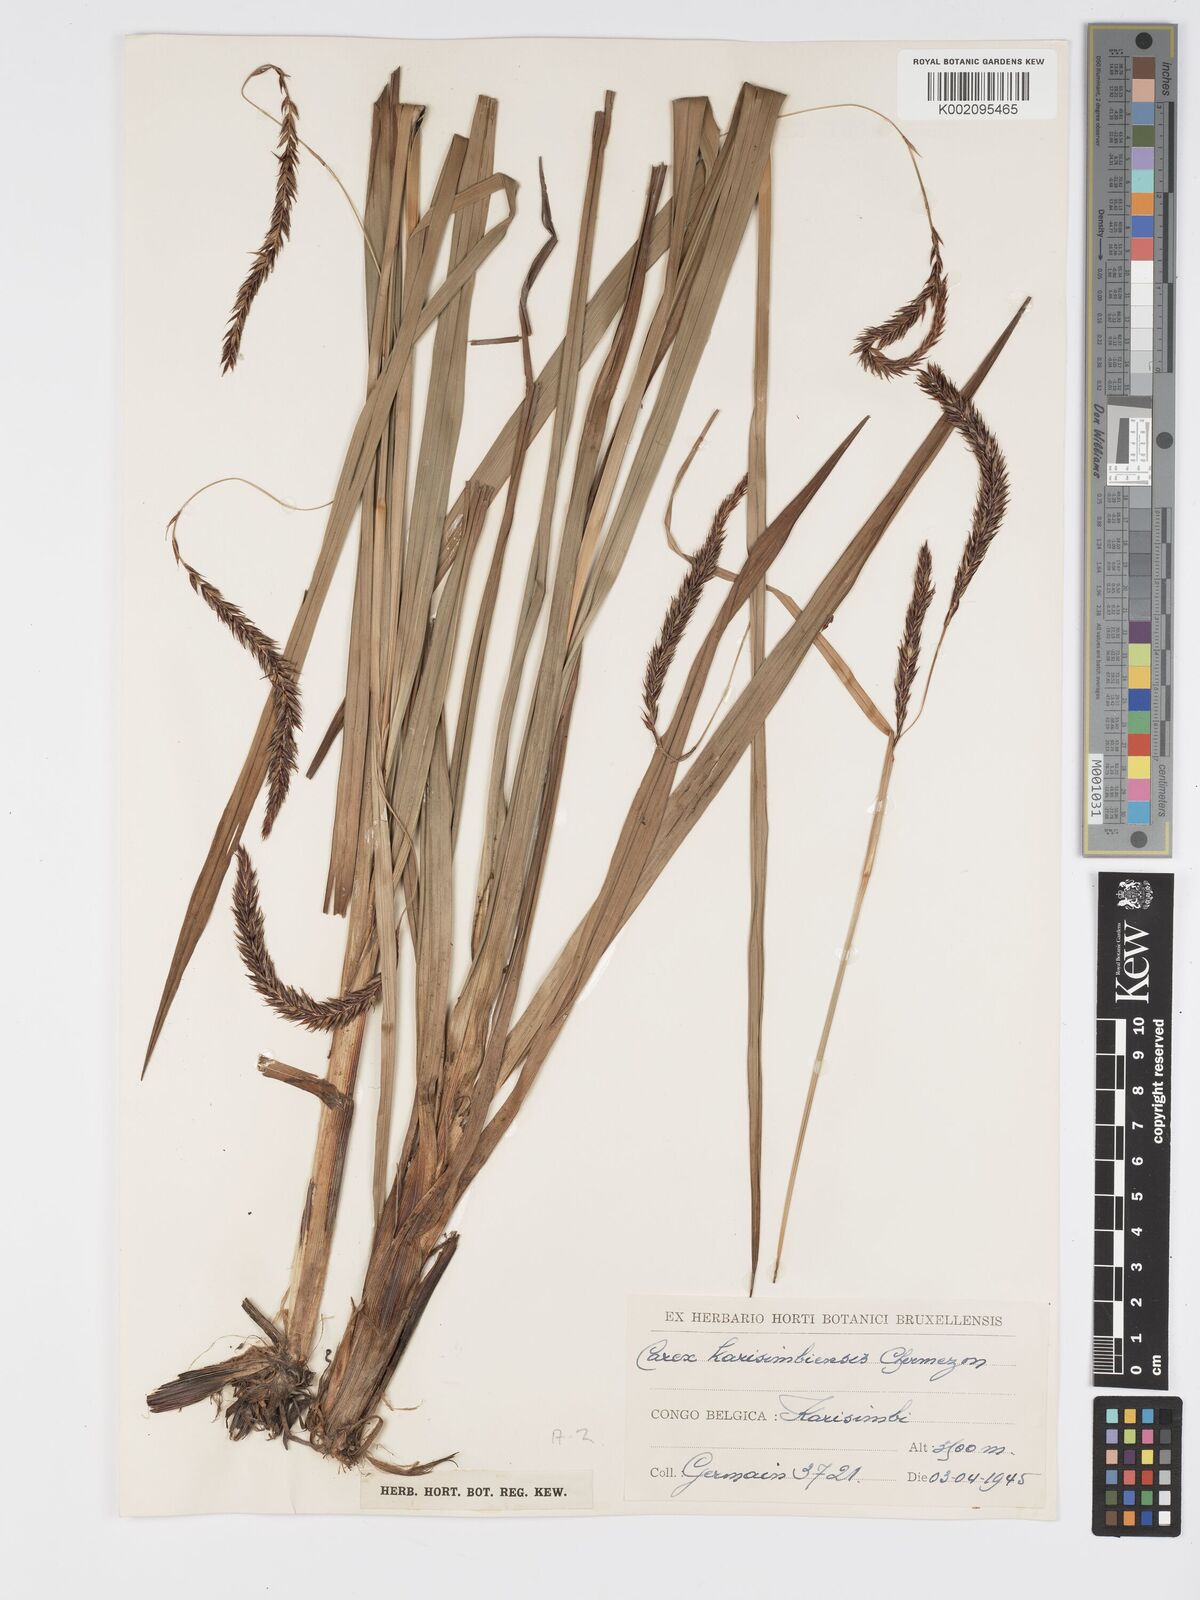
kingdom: Plantae
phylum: Tracheophyta
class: Liliopsida
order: Poales
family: Cyperaceae
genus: Carex
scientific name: Carex simensis
